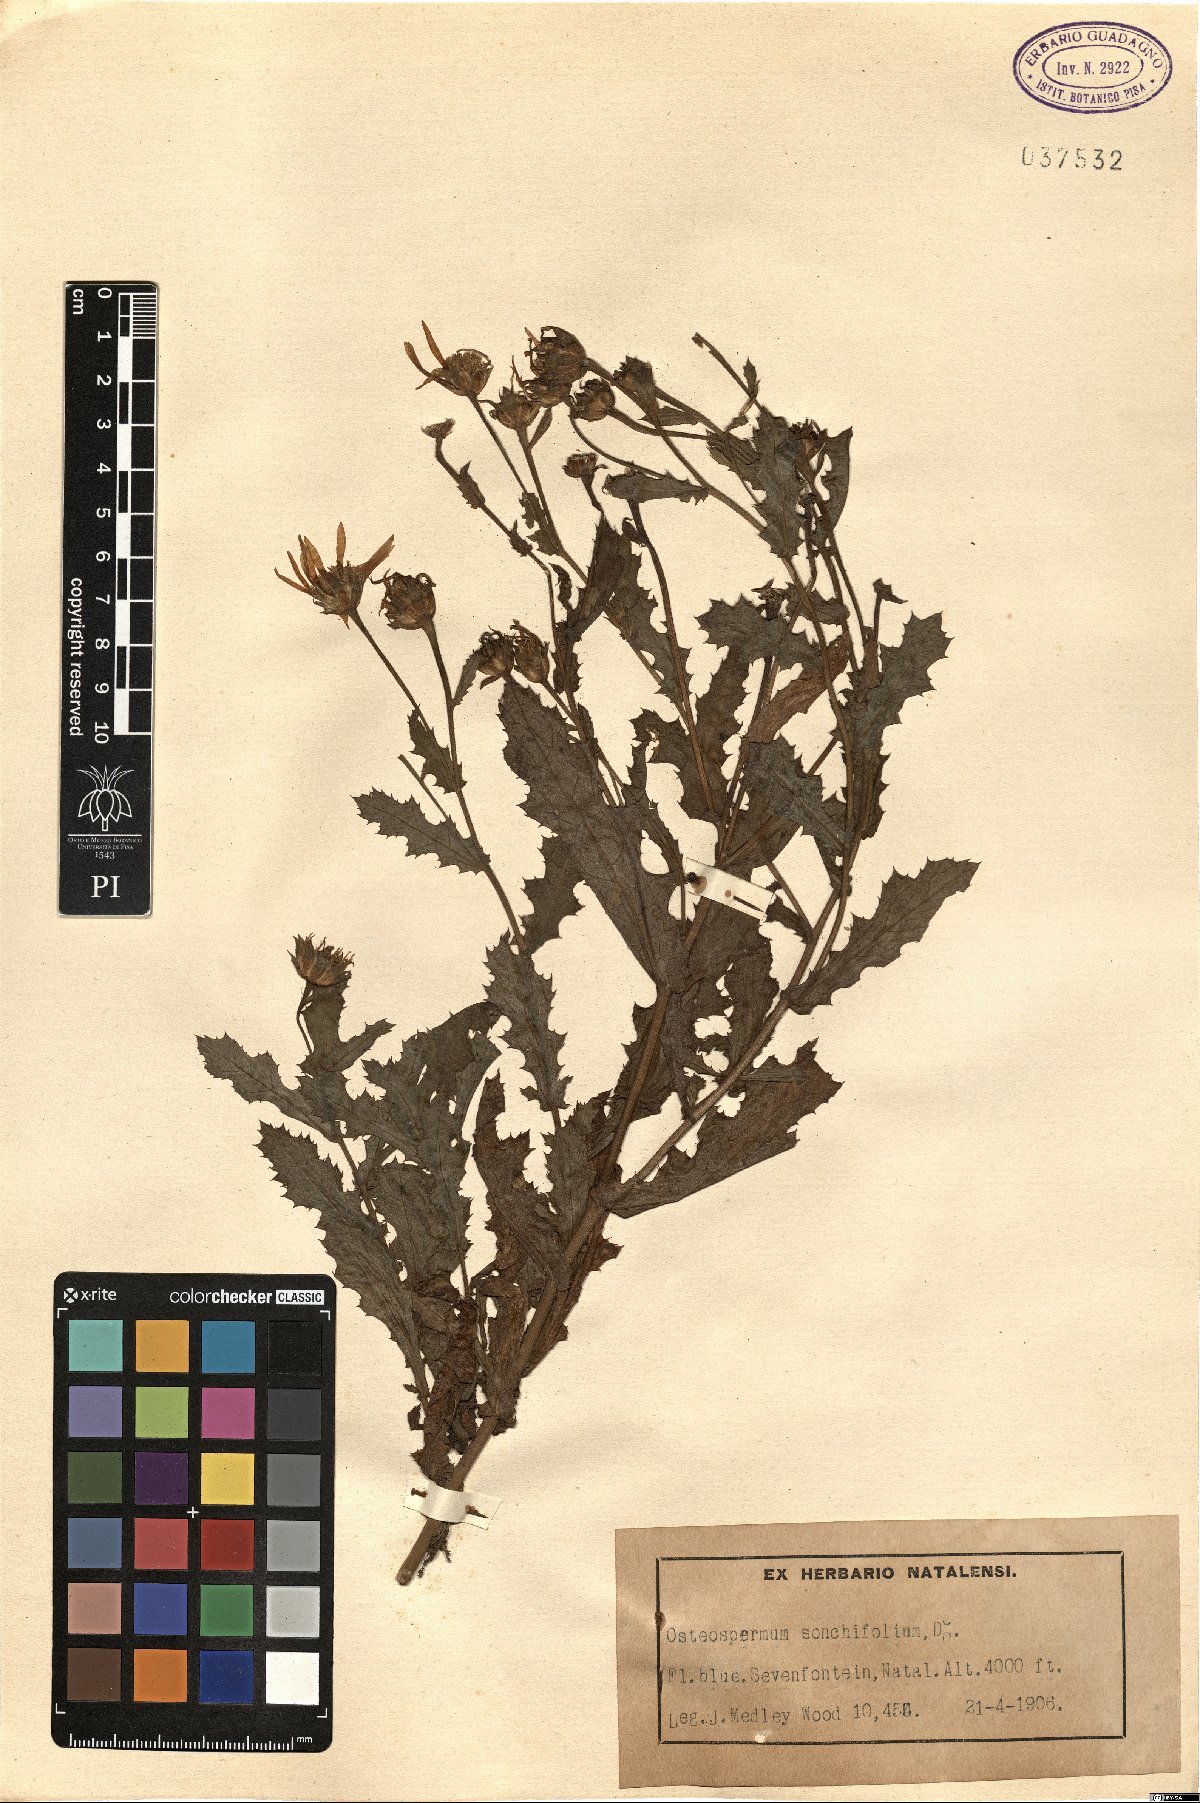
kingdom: Plantae
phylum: Tracheophyta
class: Magnoliopsida
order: Asterales
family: Asteraceae
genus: Garuleum
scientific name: Garuleum sonchifolium
